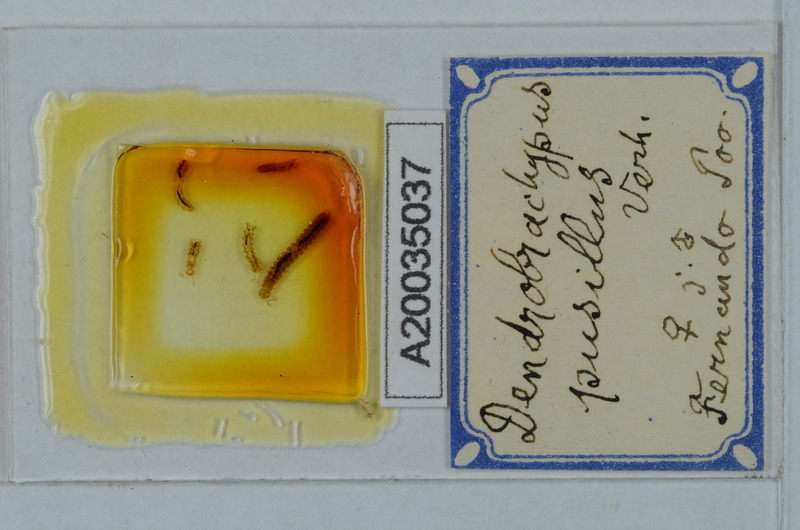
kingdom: Animalia
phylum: Arthropoda
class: Diplopoda
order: Polydesmida
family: Fuhrmannodesmidae
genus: Dendrobrachypus
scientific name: Dendrobrachypus pusillus
